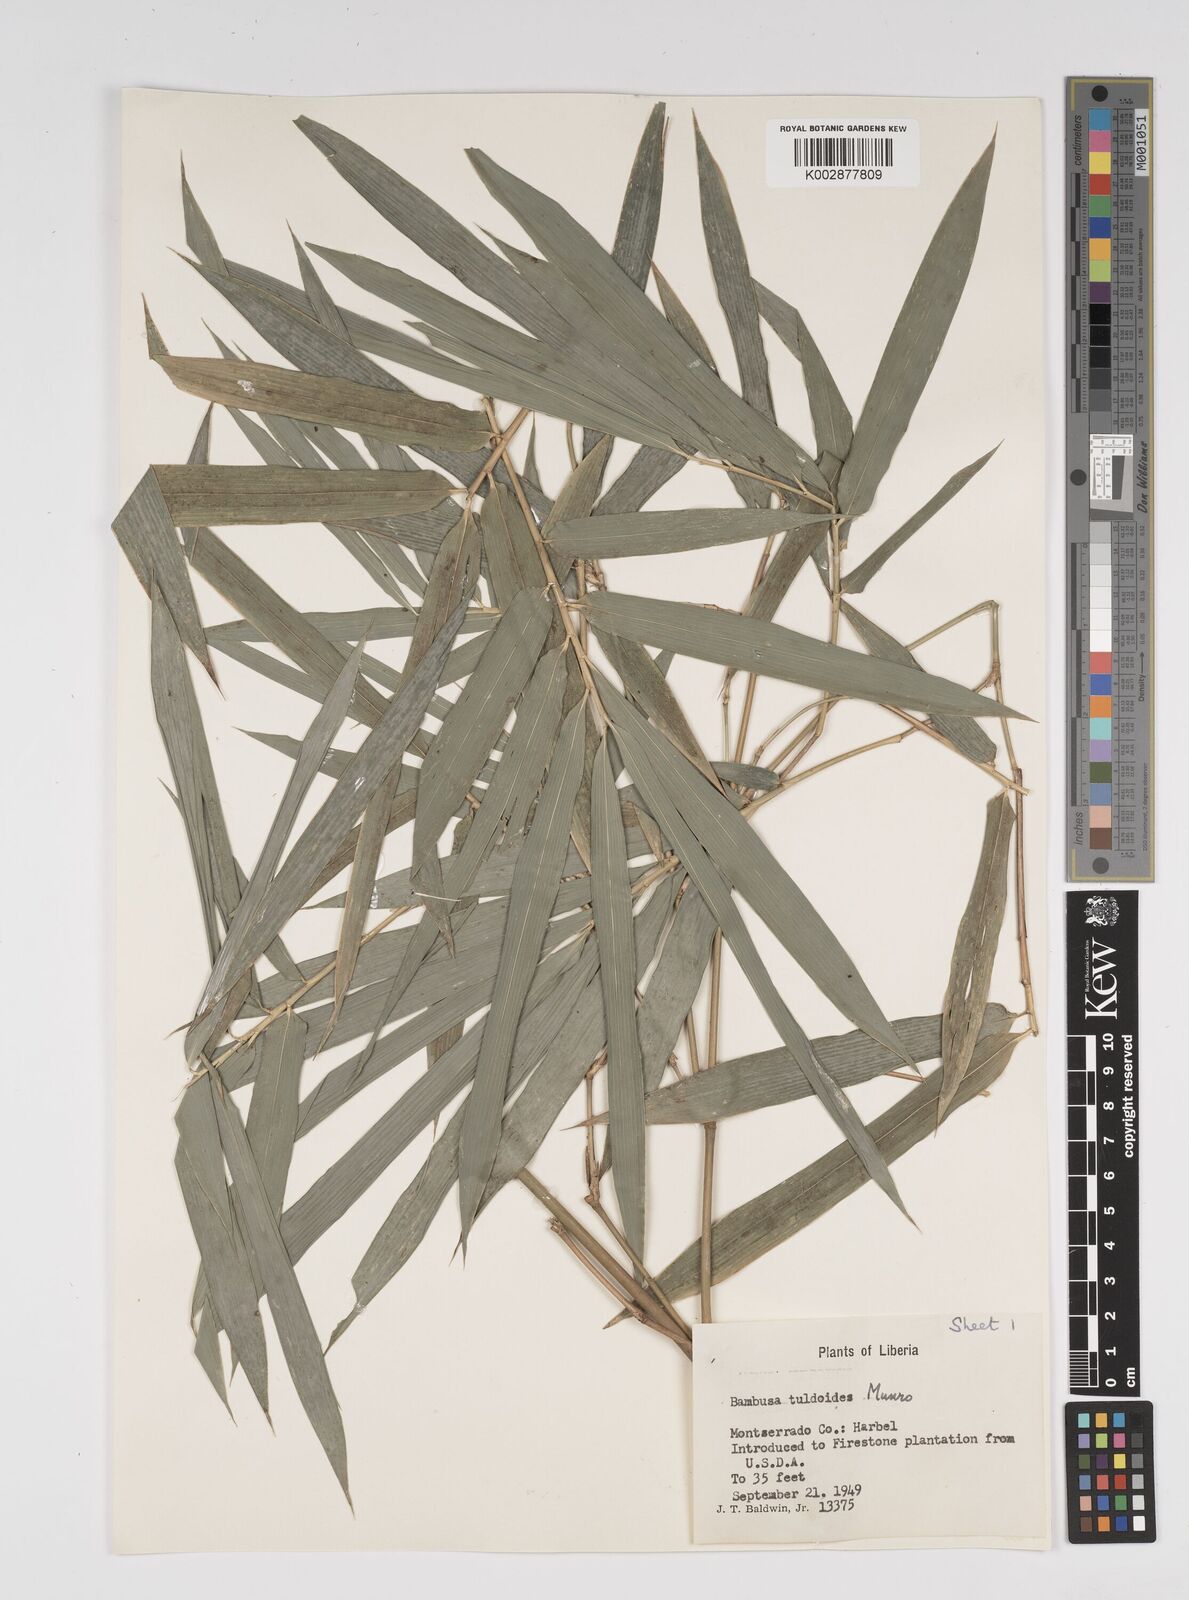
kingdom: Plantae
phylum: Tracheophyta
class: Liliopsida
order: Poales
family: Poaceae
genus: Bambusa
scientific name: Bambusa tuldoides
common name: Verdant bamboo
